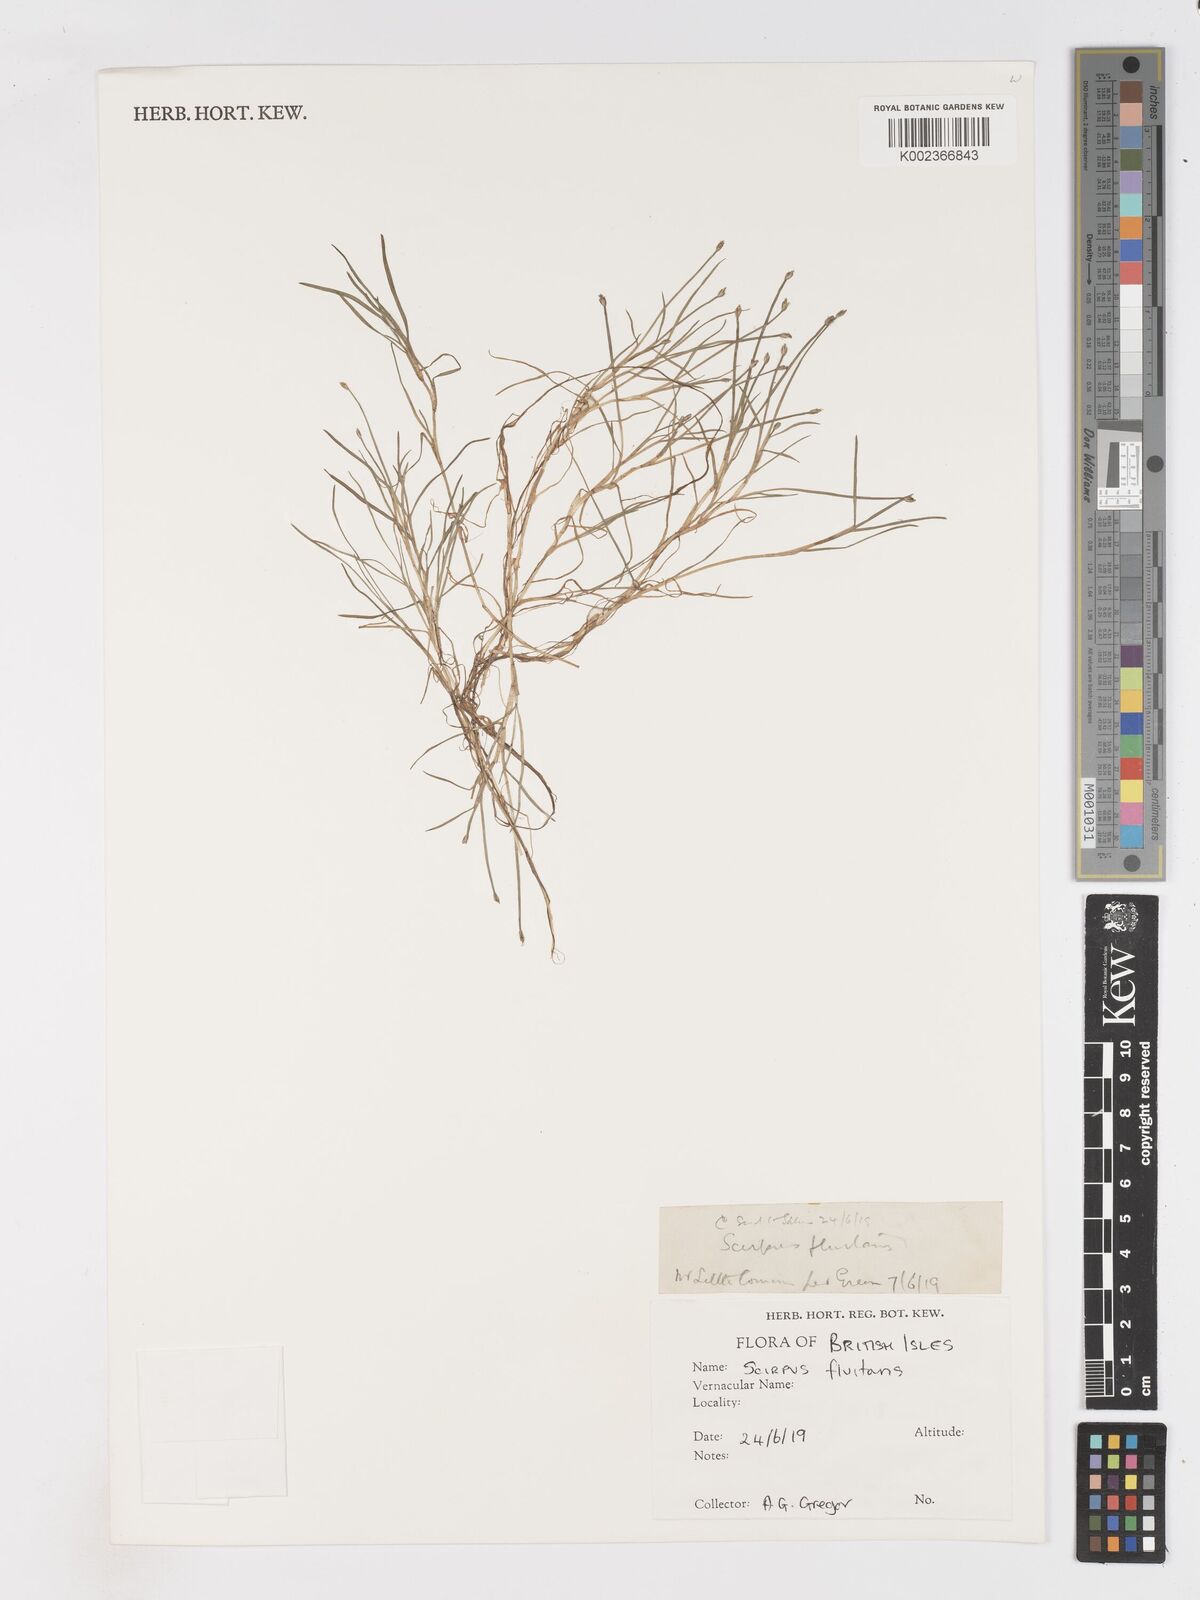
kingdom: Plantae
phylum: Tracheophyta
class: Liliopsida
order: Poales
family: Cyperaceae
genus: Isolepis
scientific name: Isolepis fluitans
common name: Floating club-rush
